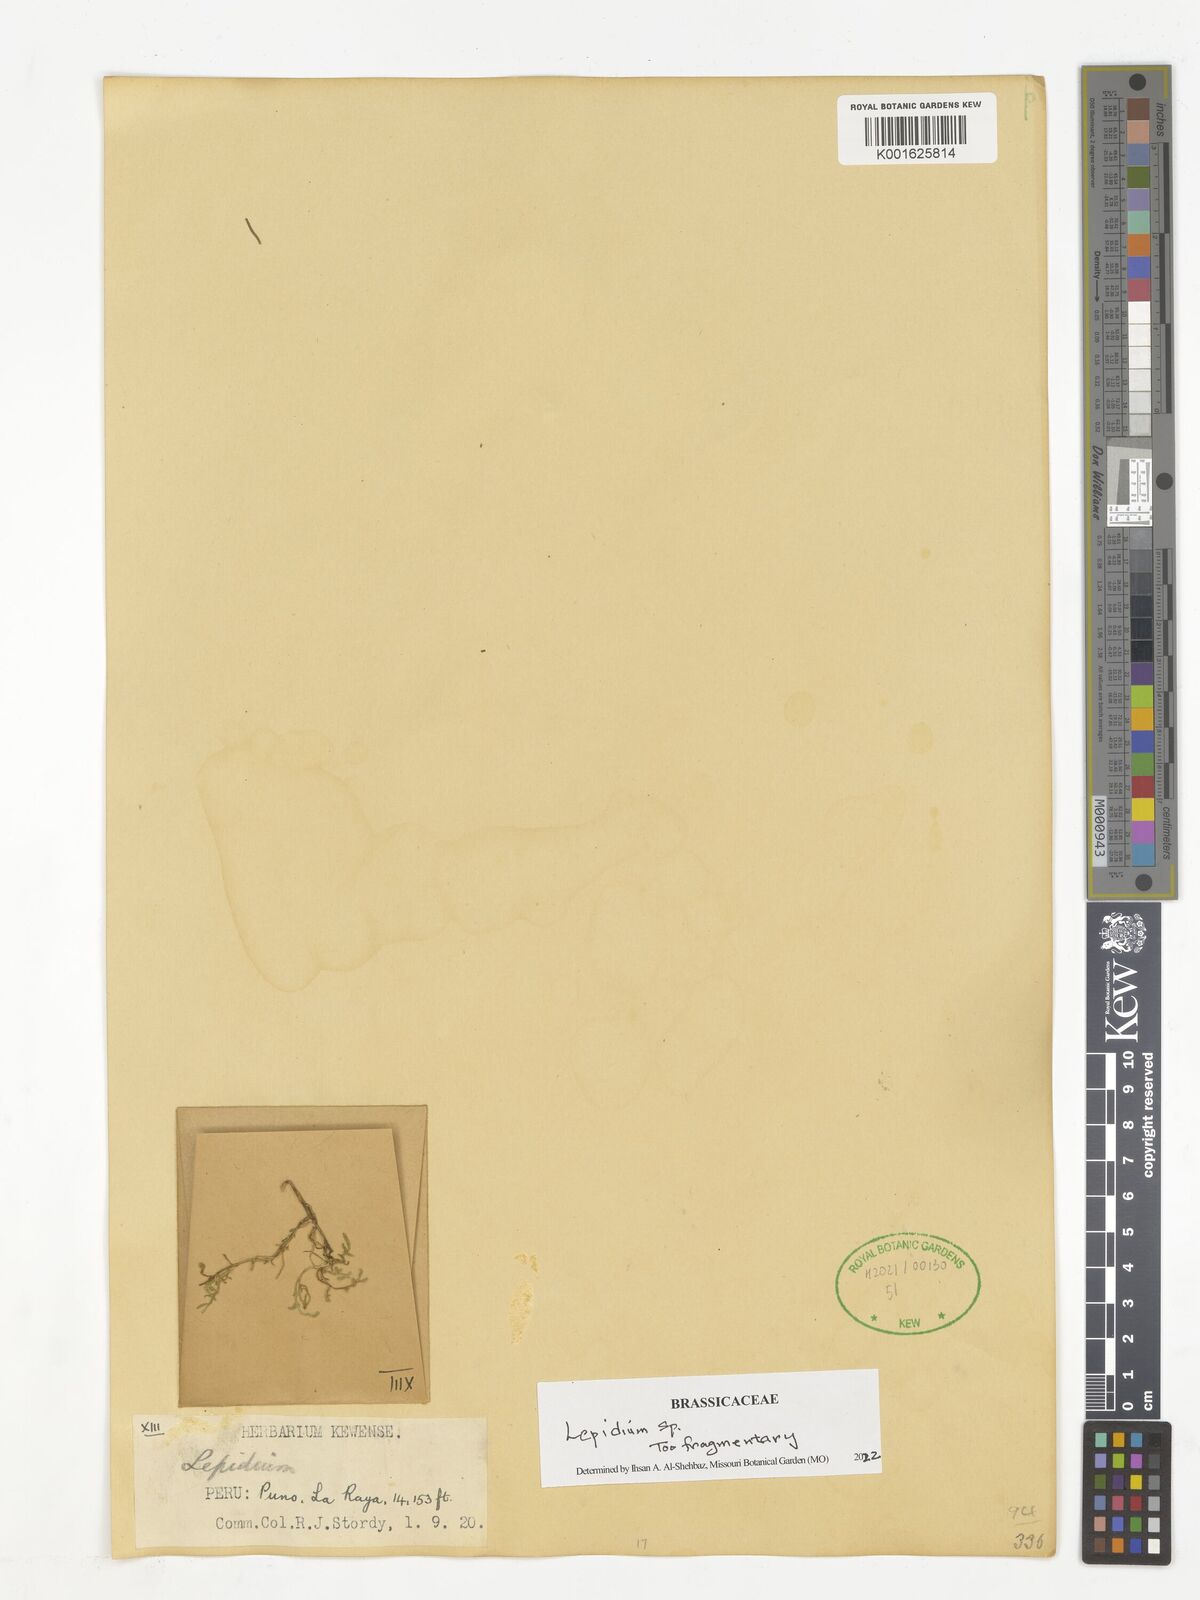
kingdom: Plantae
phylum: Tracheophyta
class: Magnoliopsida
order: Brassicales
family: Brassicaceae
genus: Lepidium
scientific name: Lepidium
